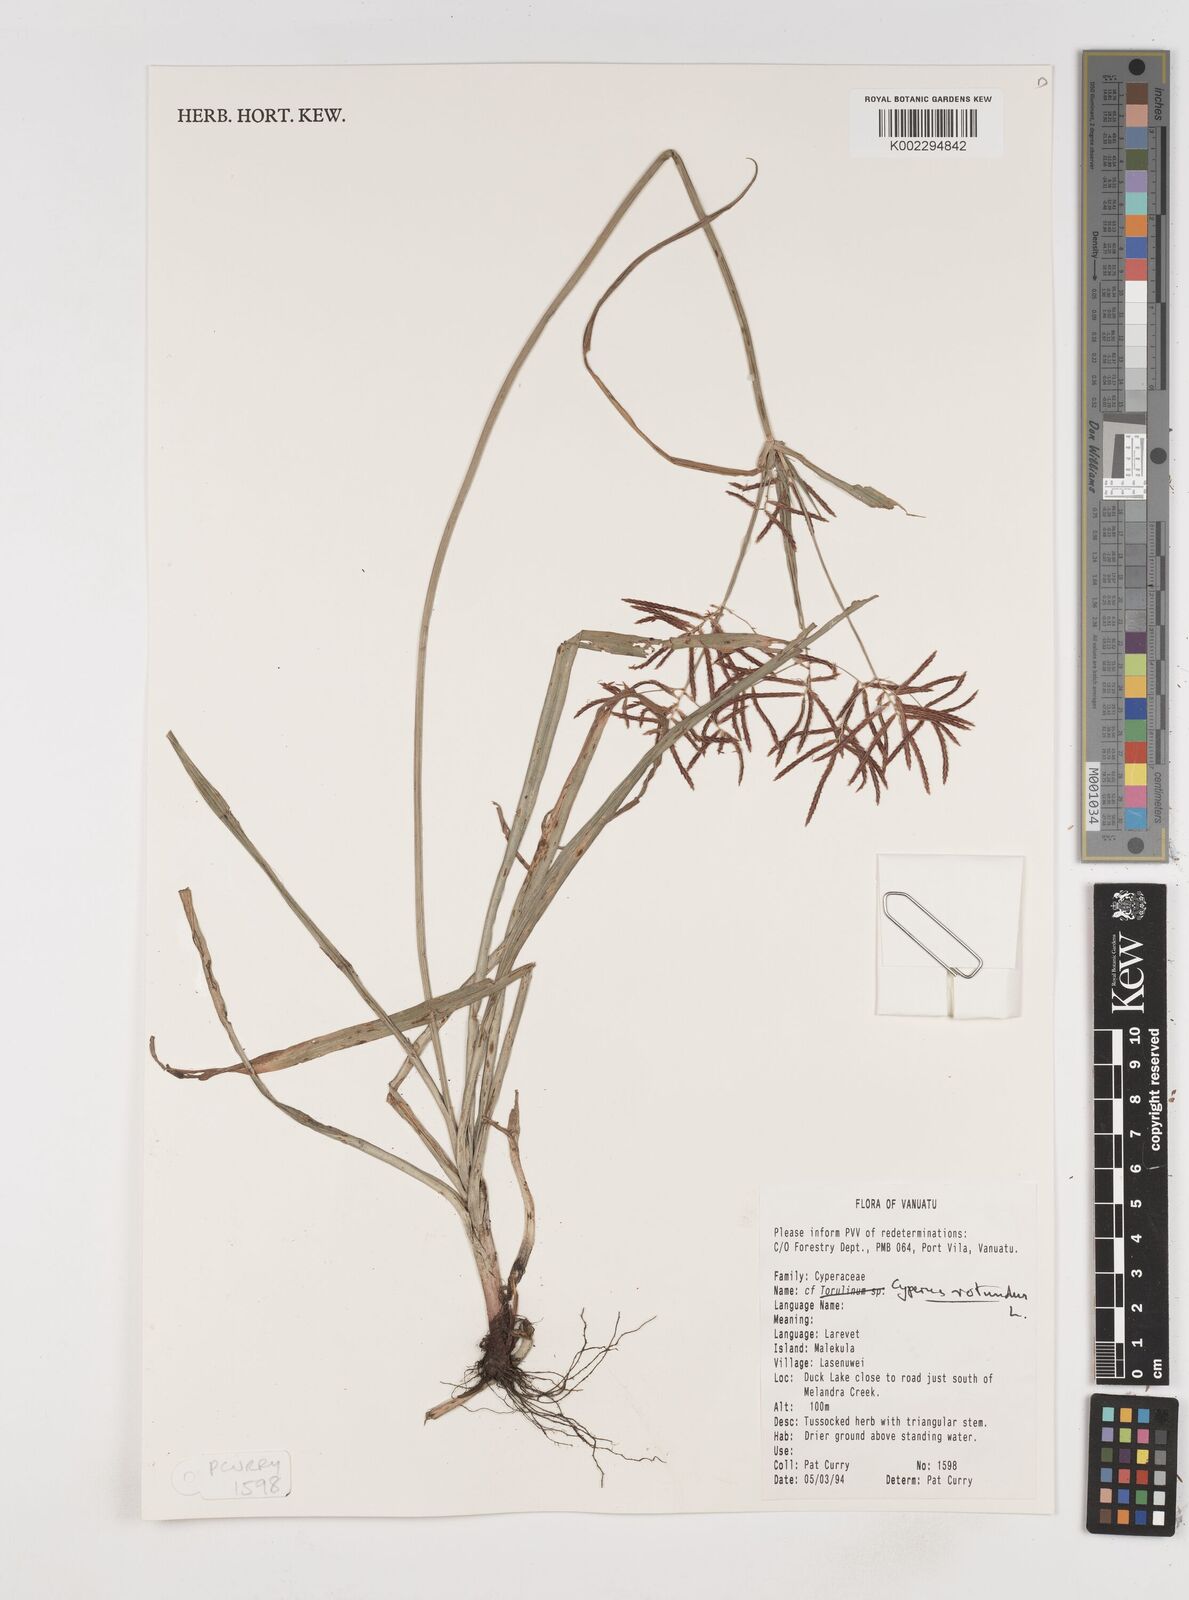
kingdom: Plantae
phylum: Tracheophyta
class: Liliopsida
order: Poales
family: Cyperaceae
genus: Cyperus
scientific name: Cyperus rotundus
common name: Nutgrass
